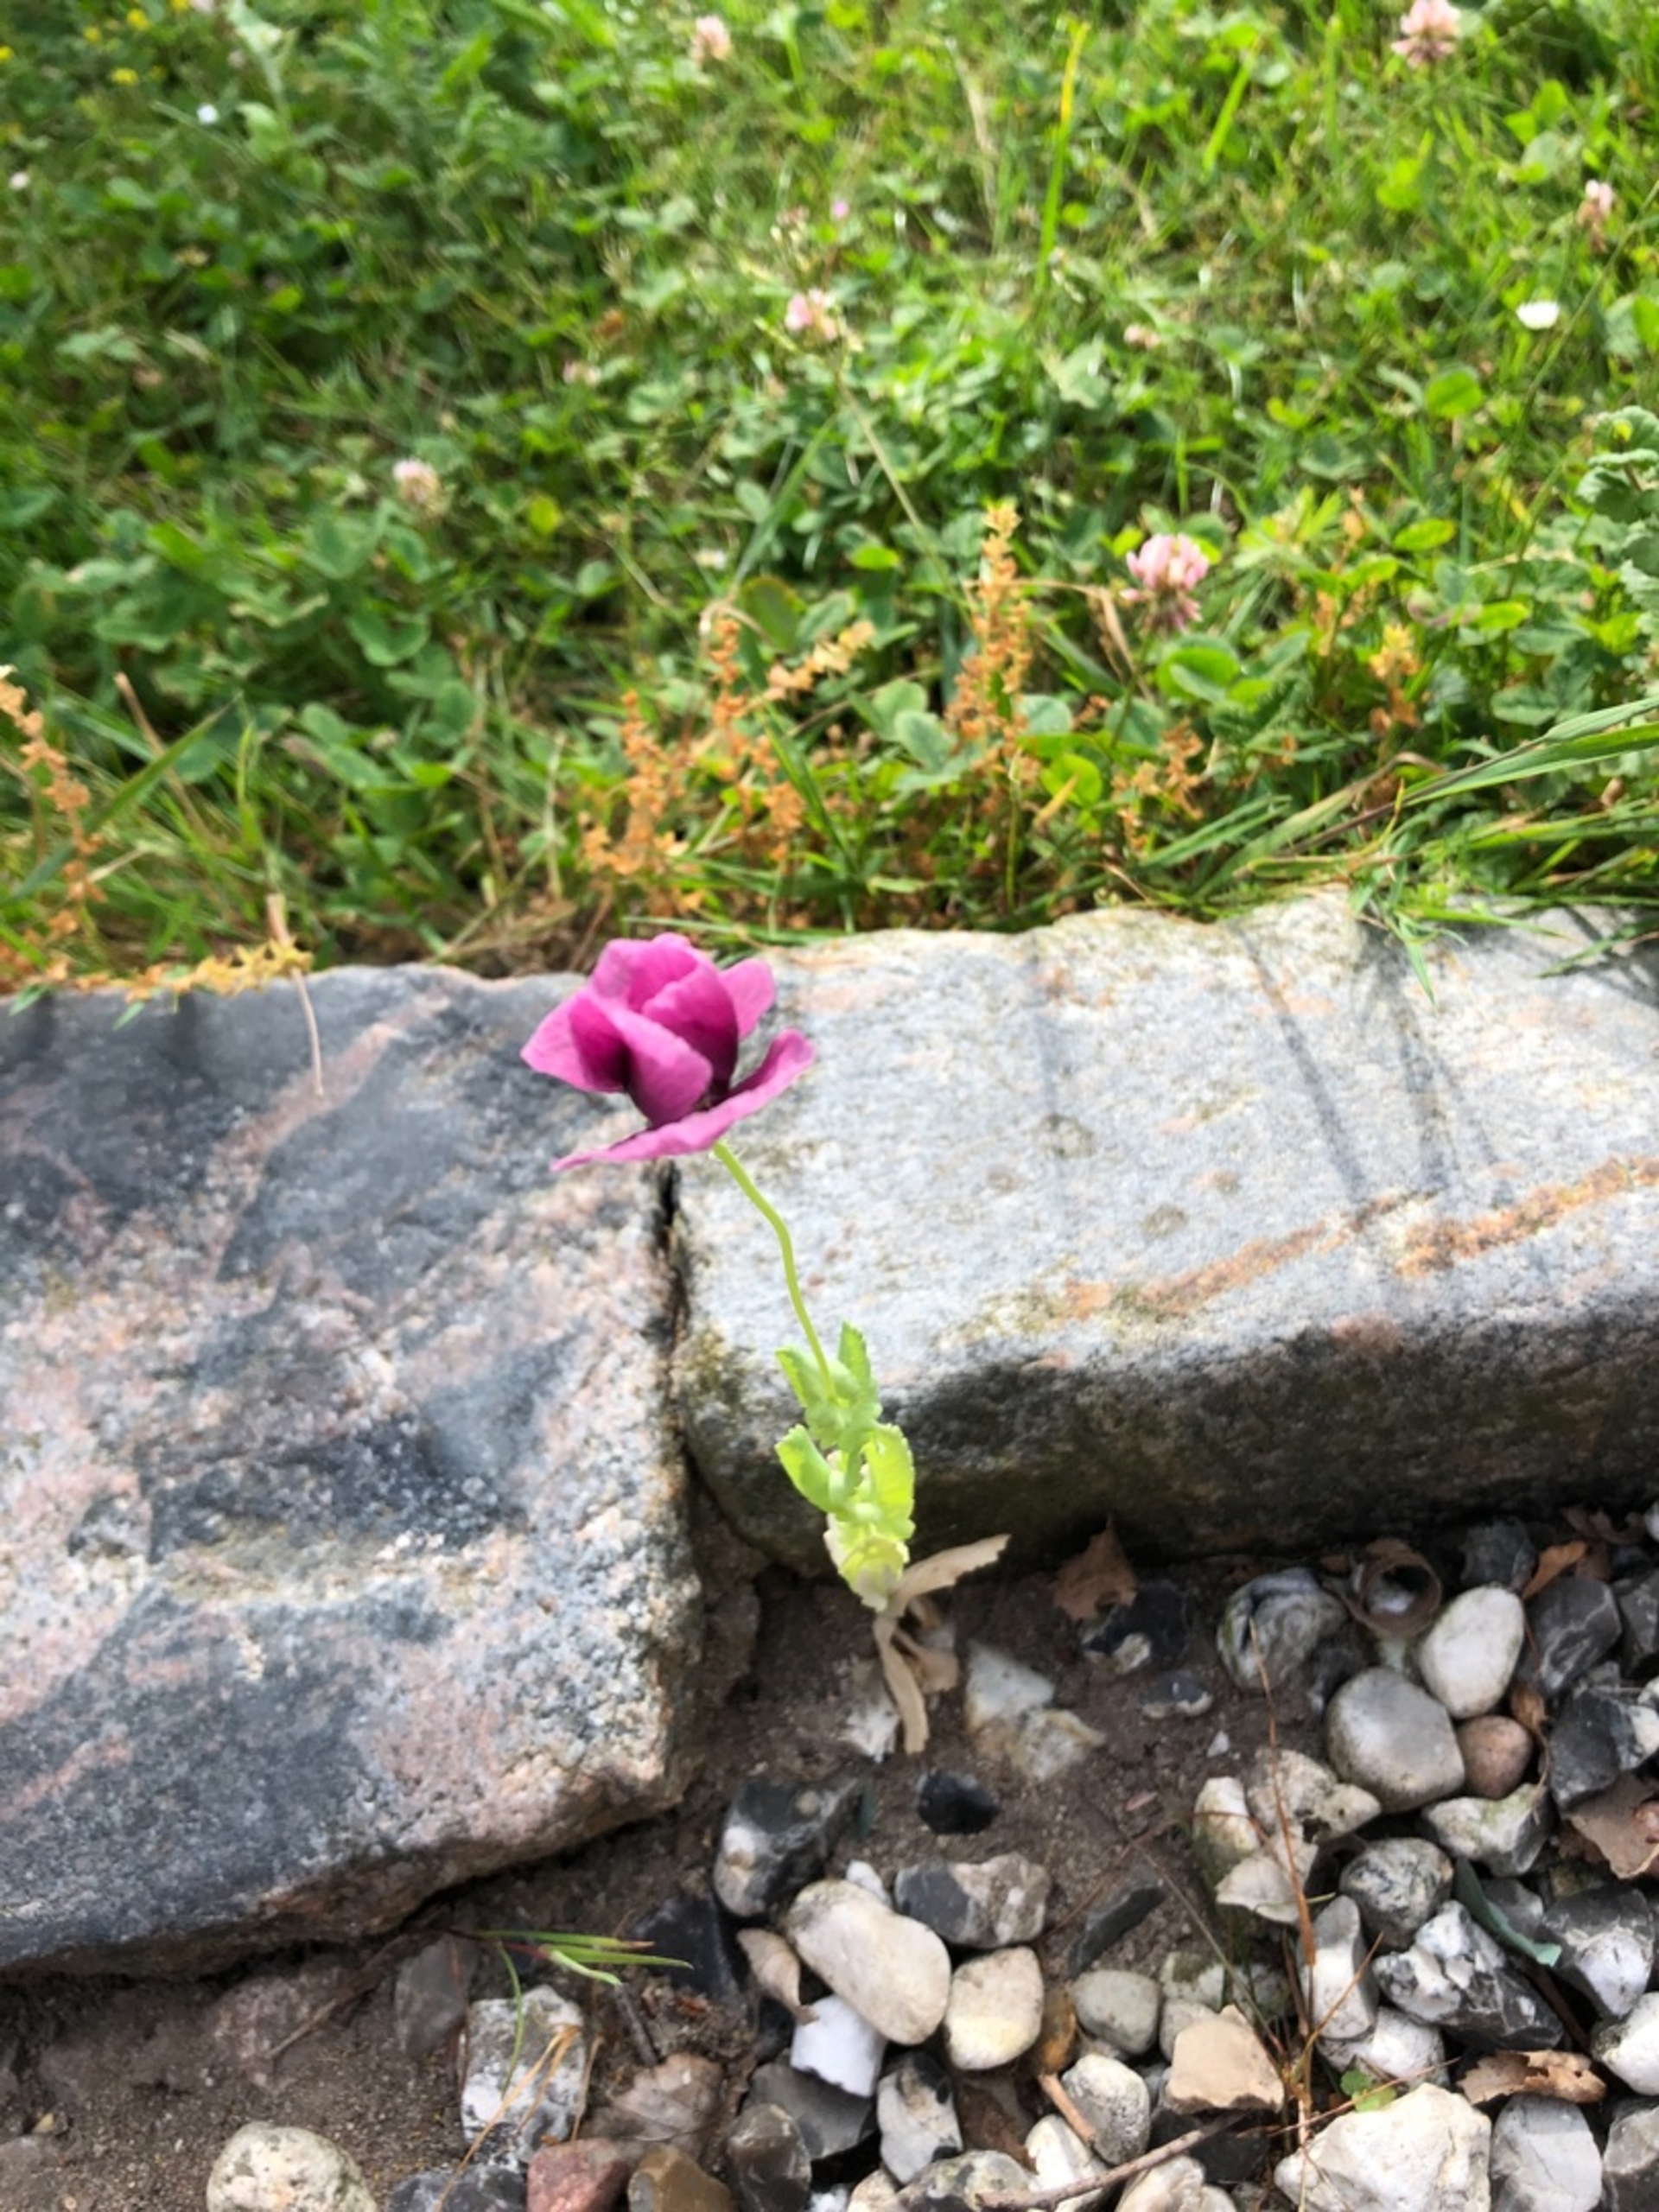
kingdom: Plantae
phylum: Tracheophyta
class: Magnoliopsida
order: Ranunculales
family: Papaveraceae
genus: Papaver
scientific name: Papaver somniferum
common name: Opium-valmue
